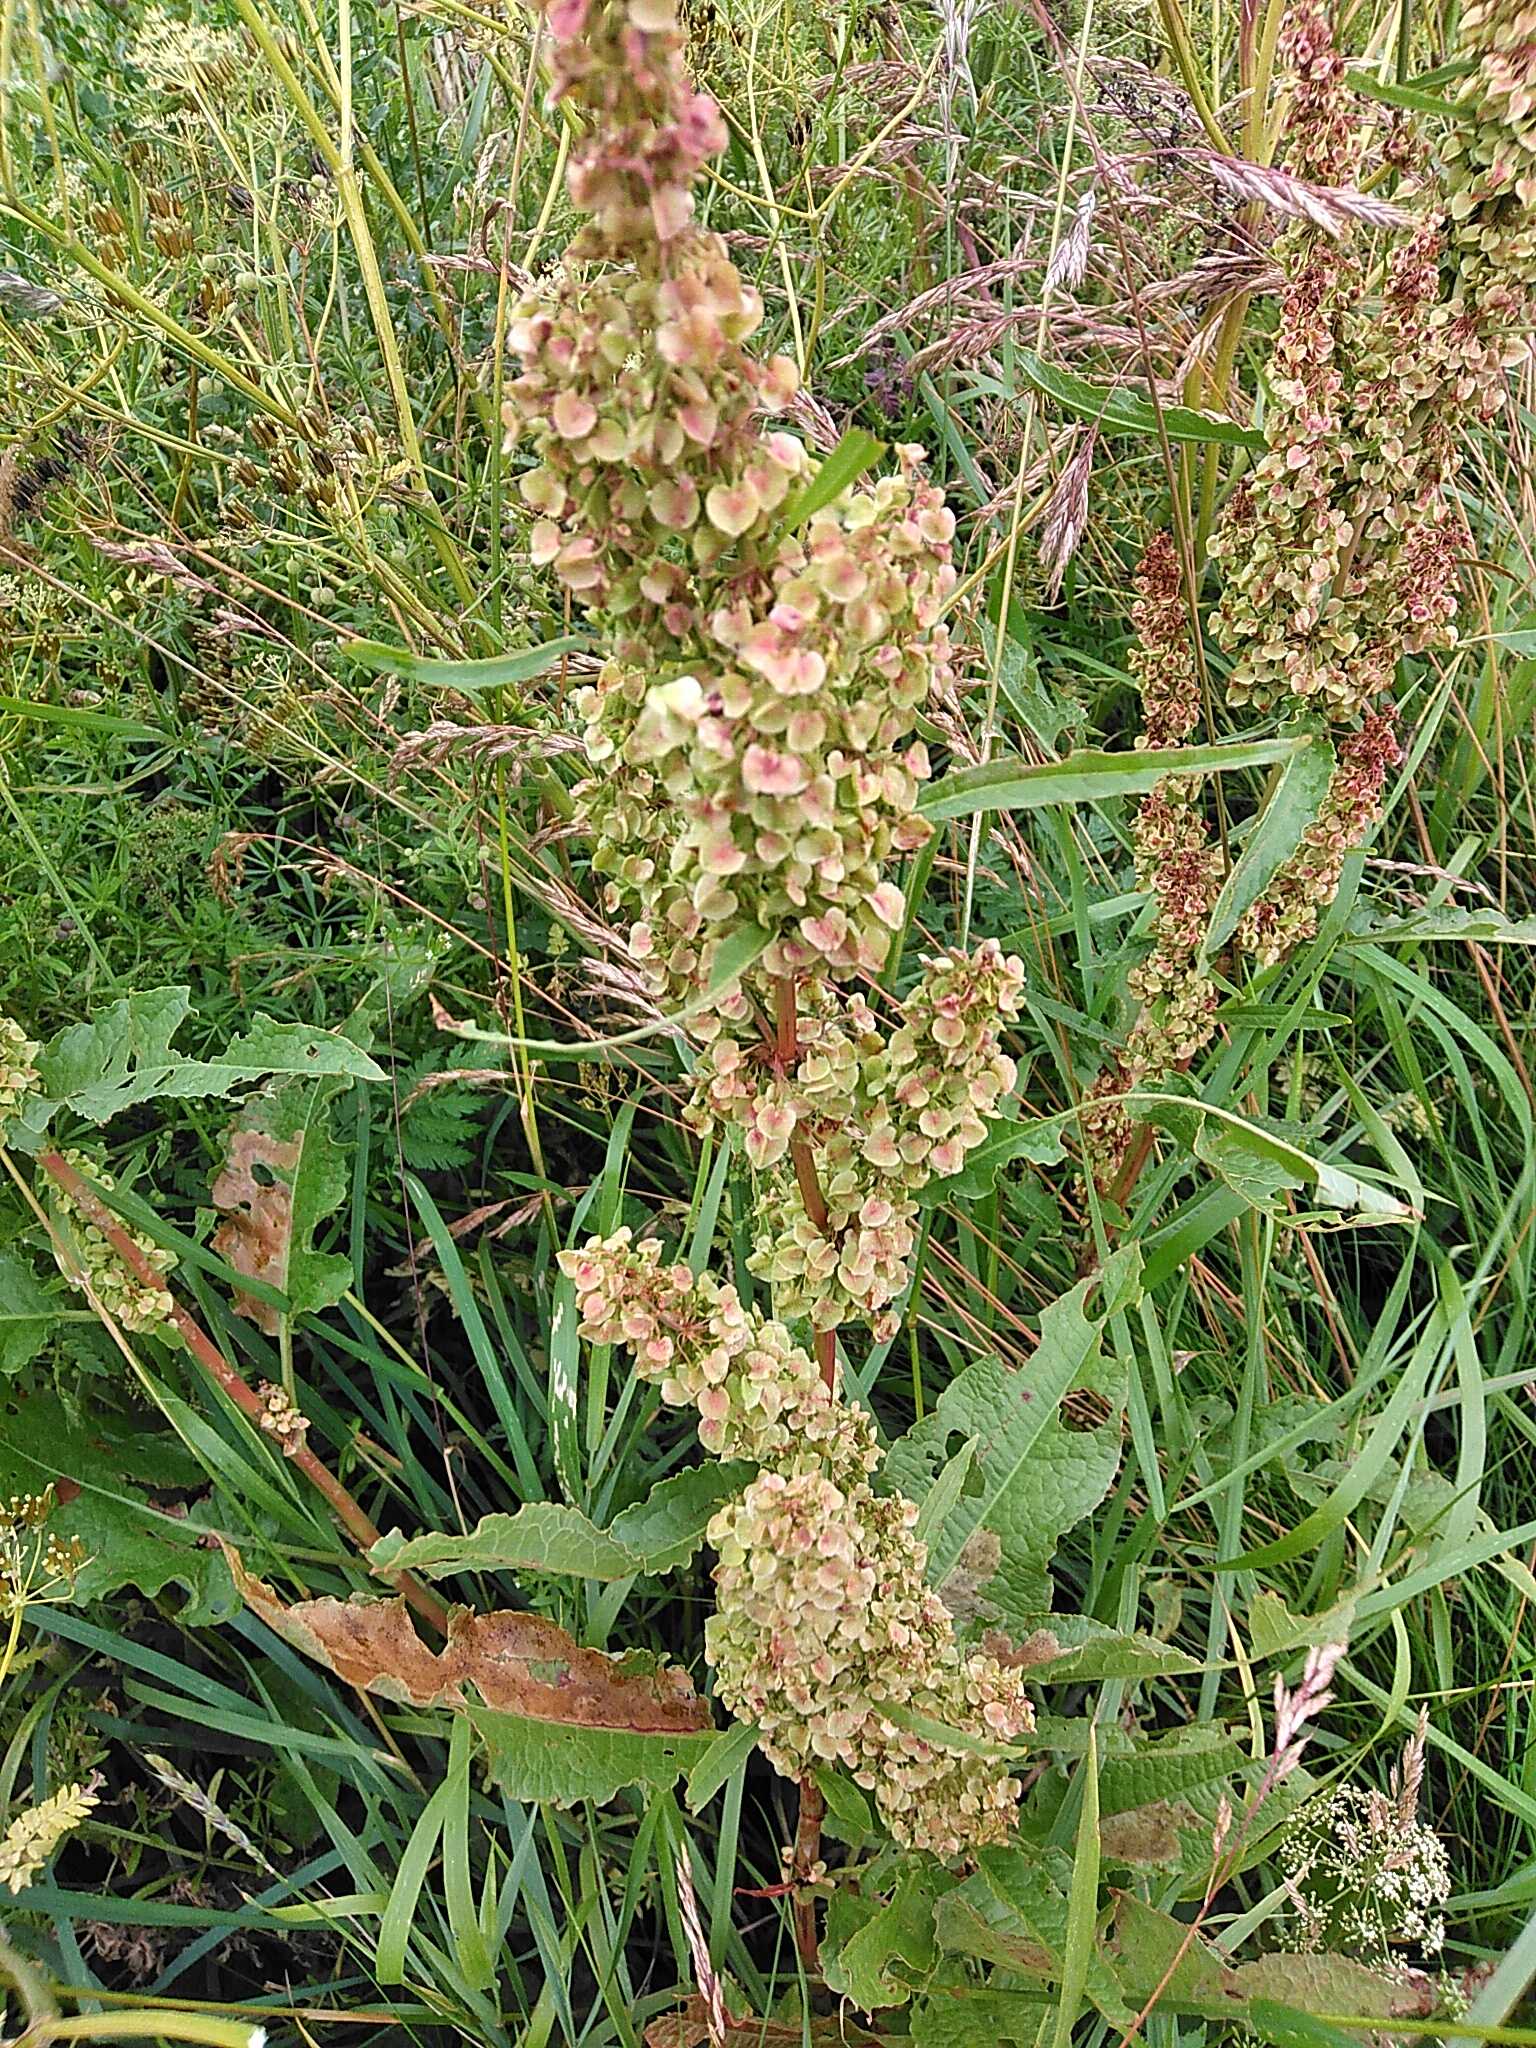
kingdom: Plantae
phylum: Tracheophyta
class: Magnoliopsida
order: Caryophyllales
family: Polygonaceae
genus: Rumex
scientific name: Rumex longifolius
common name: By-skræppe
